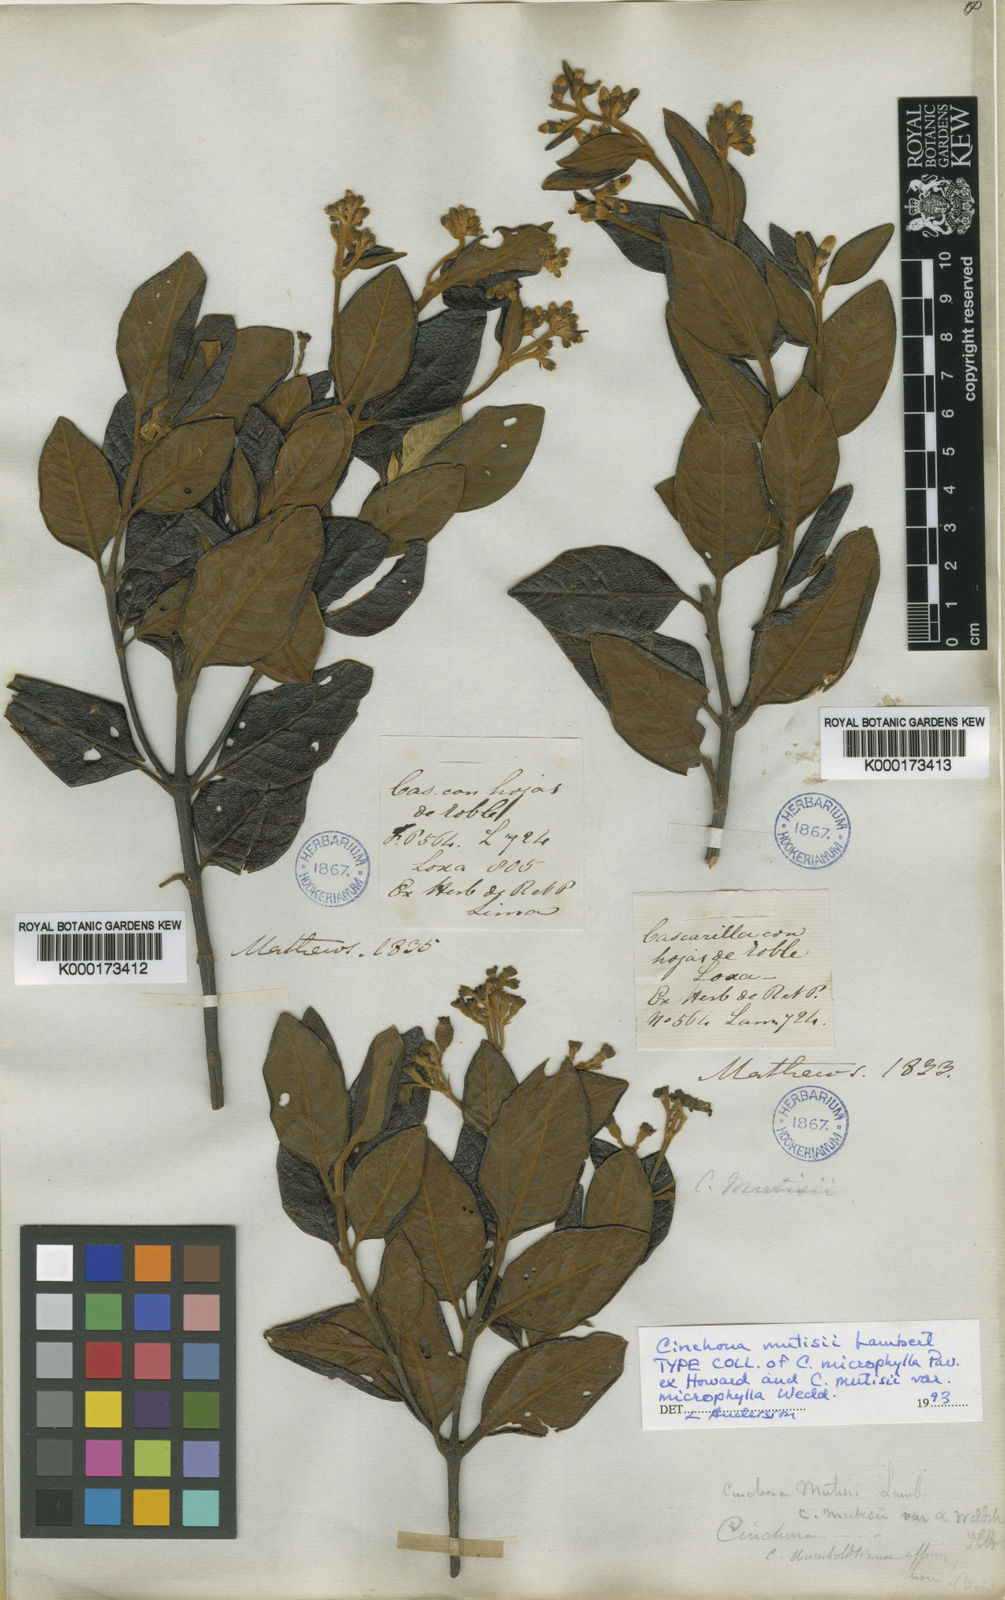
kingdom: Plantae
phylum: Tracheophyta
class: Magnoliopsida
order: Gentianales
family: Rubiaceae
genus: Cinchona
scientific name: Cinchona mutisii
